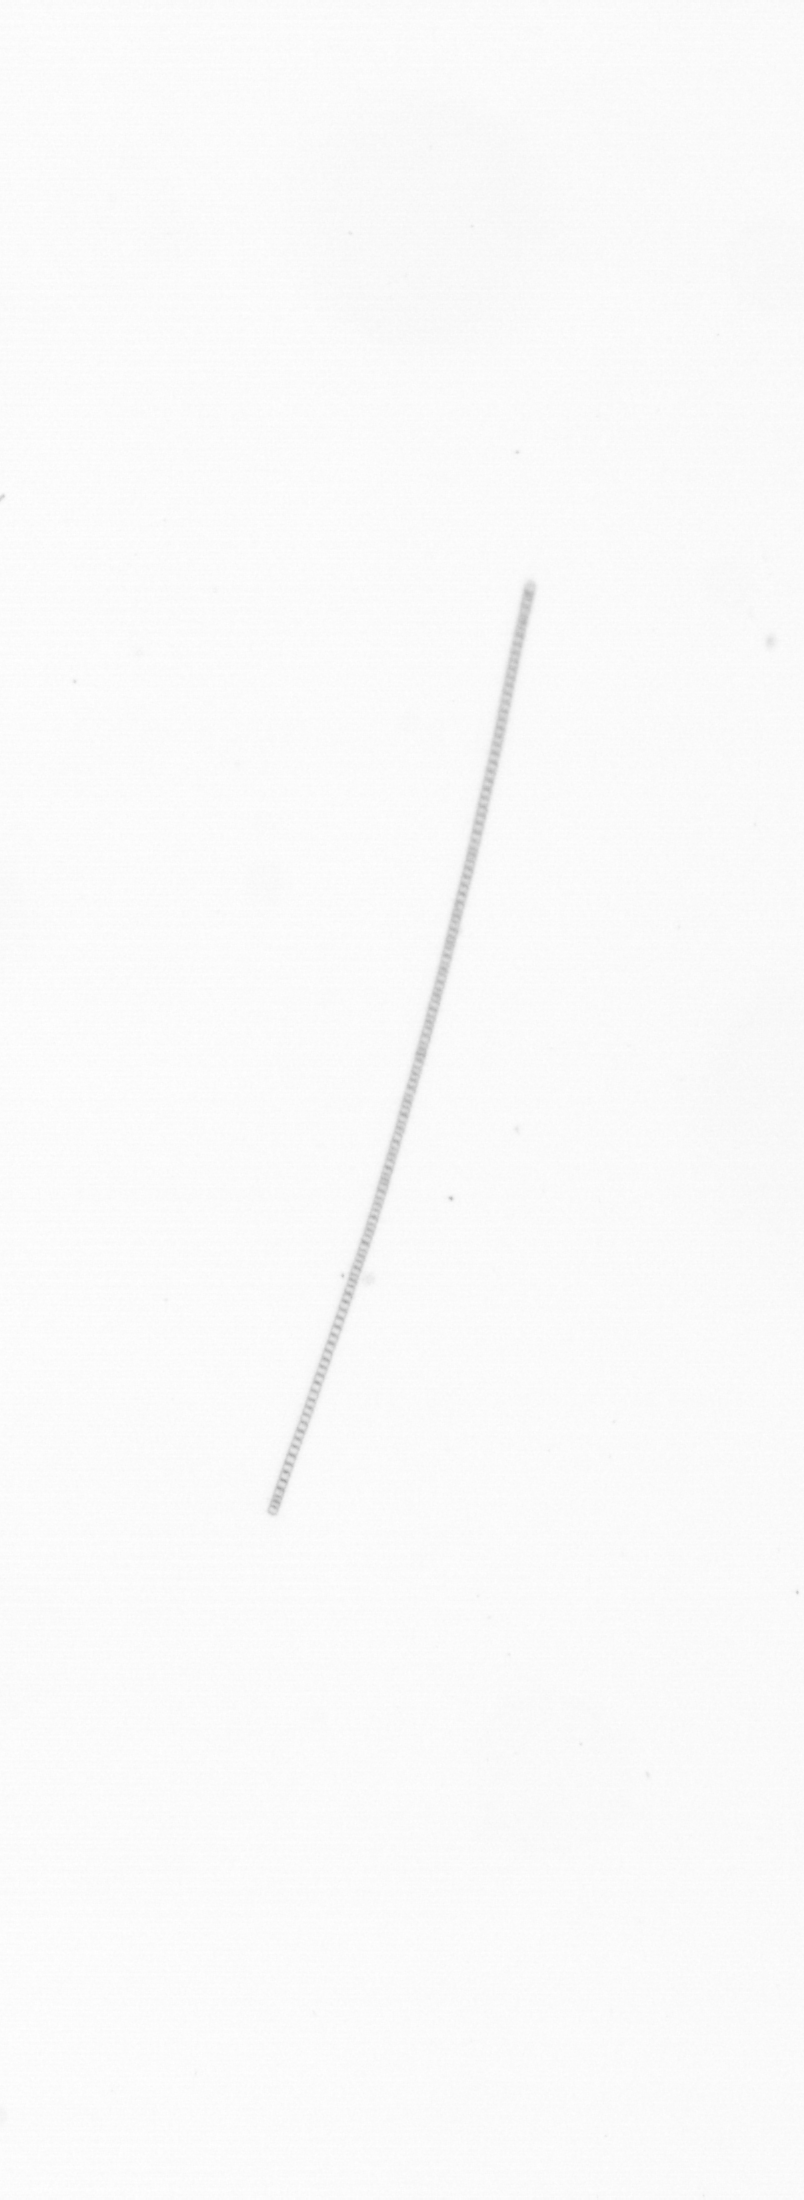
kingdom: Chromista
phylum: Ochrophyta
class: Bacillariophyceae
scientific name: Bacillariophyceae
